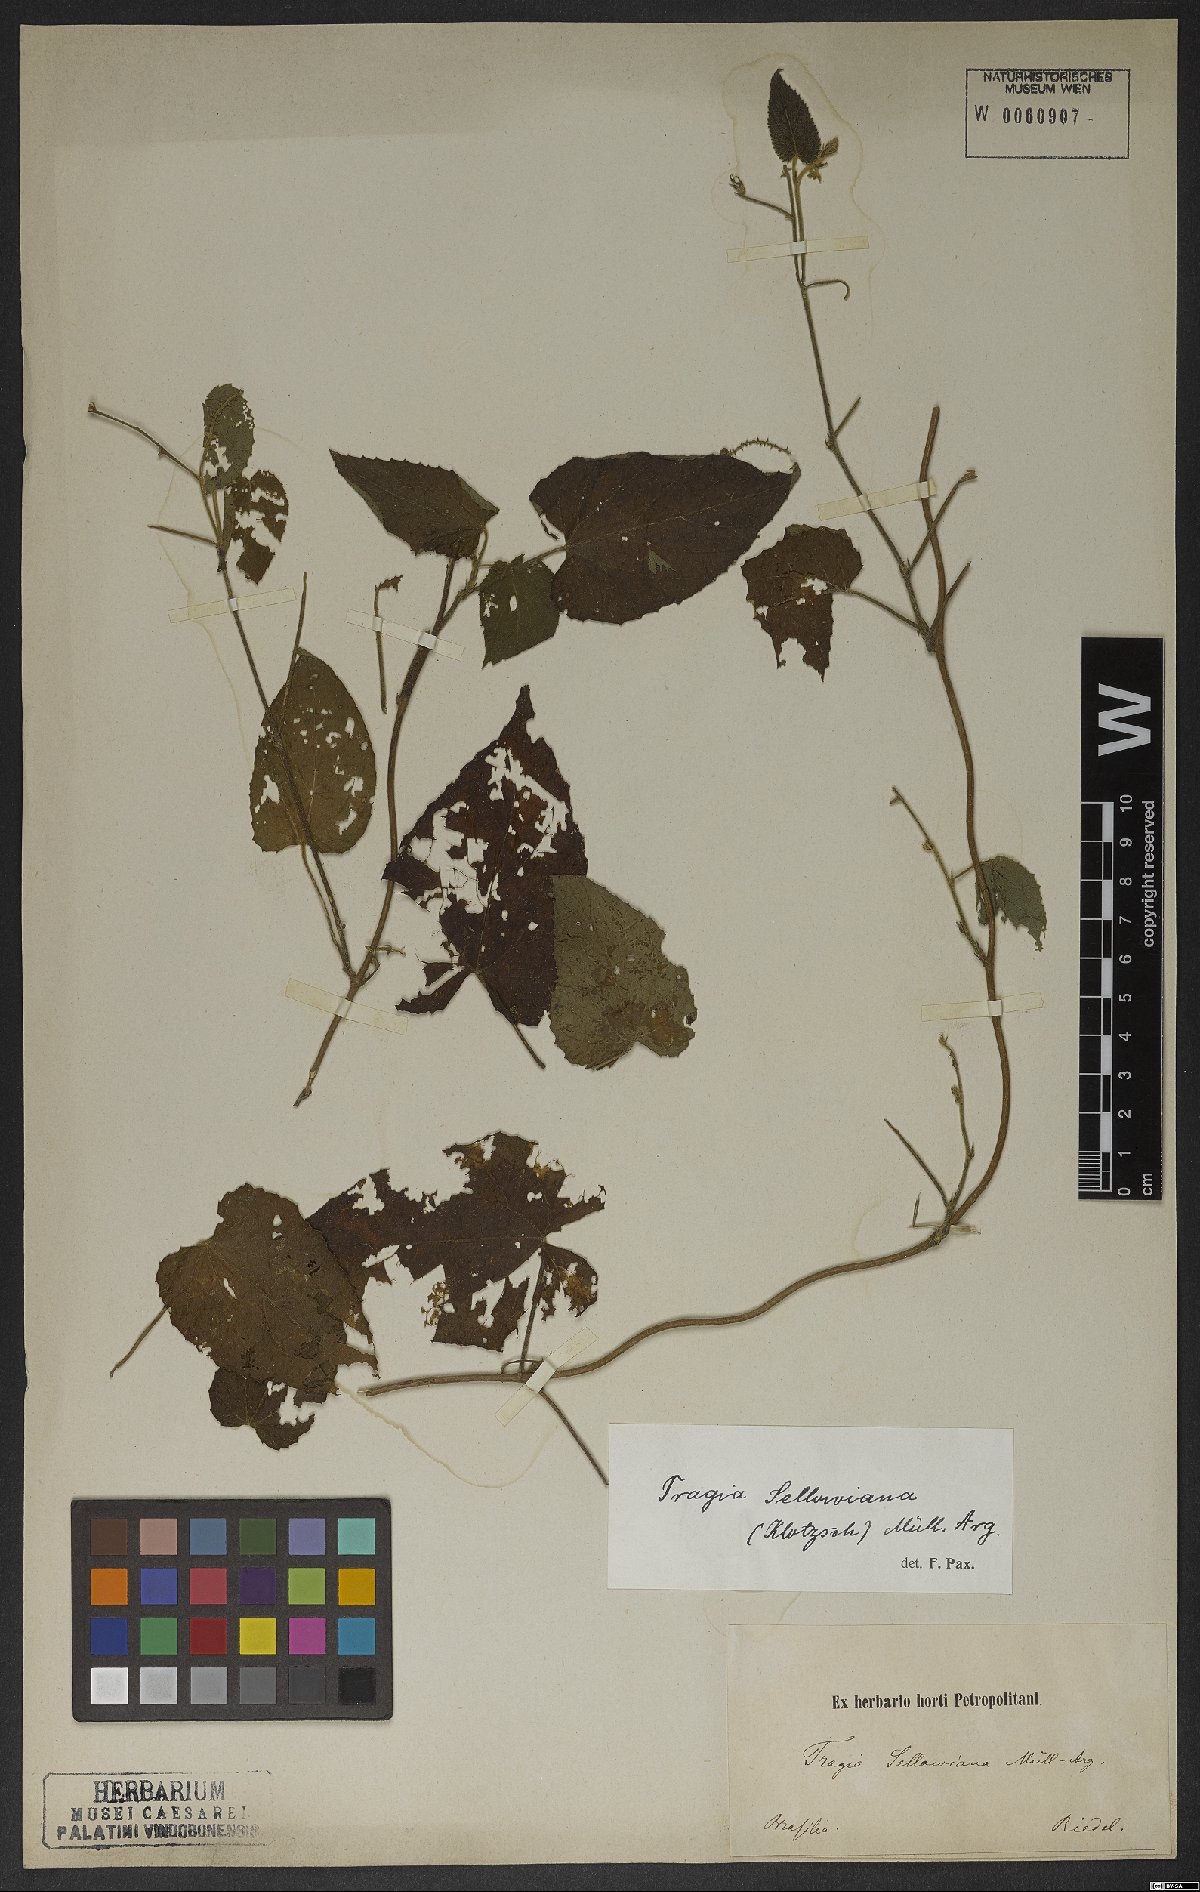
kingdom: Plantae
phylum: Tracheophyta
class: Magnoliopsida
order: Malpighiales
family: Euphorbiaceae
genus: Bia
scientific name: Bia alienata
